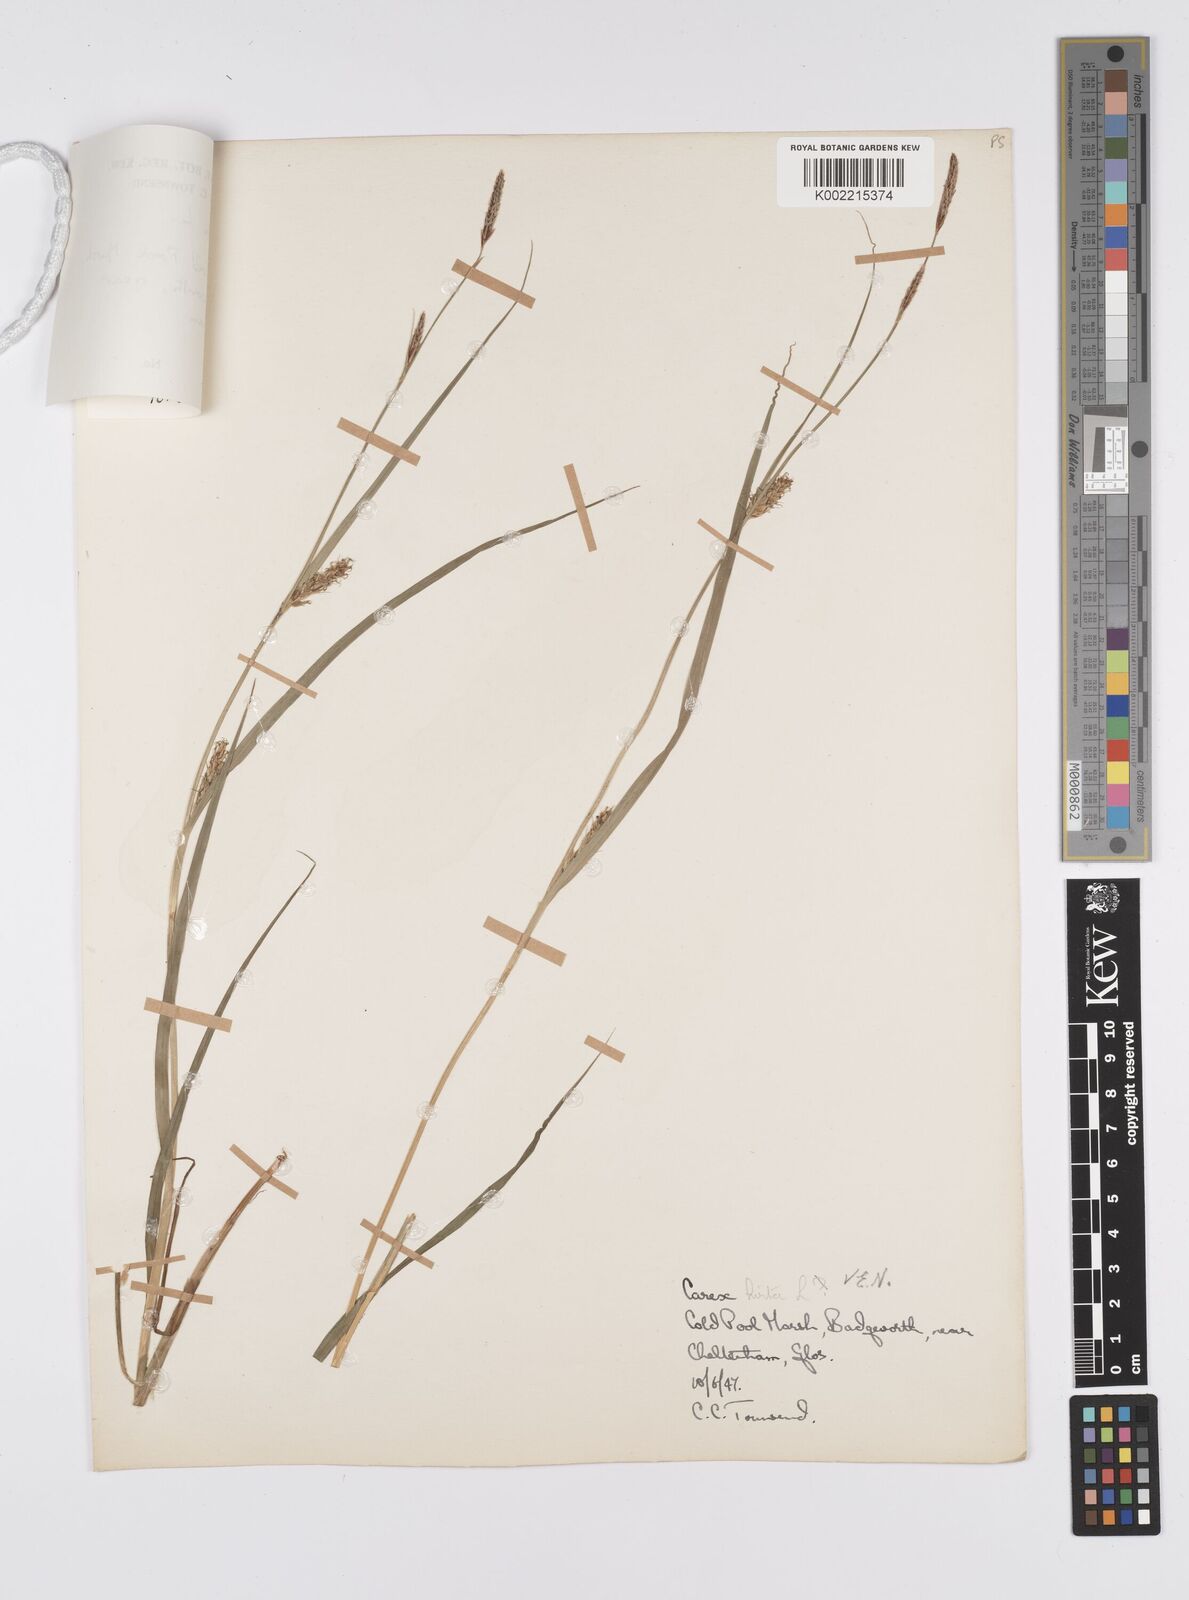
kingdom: Plantae
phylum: Tracheophyta
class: Liliopsida
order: Poales
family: Cyperaceae
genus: Carex
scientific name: Carex hirta
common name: Hairy sedge
